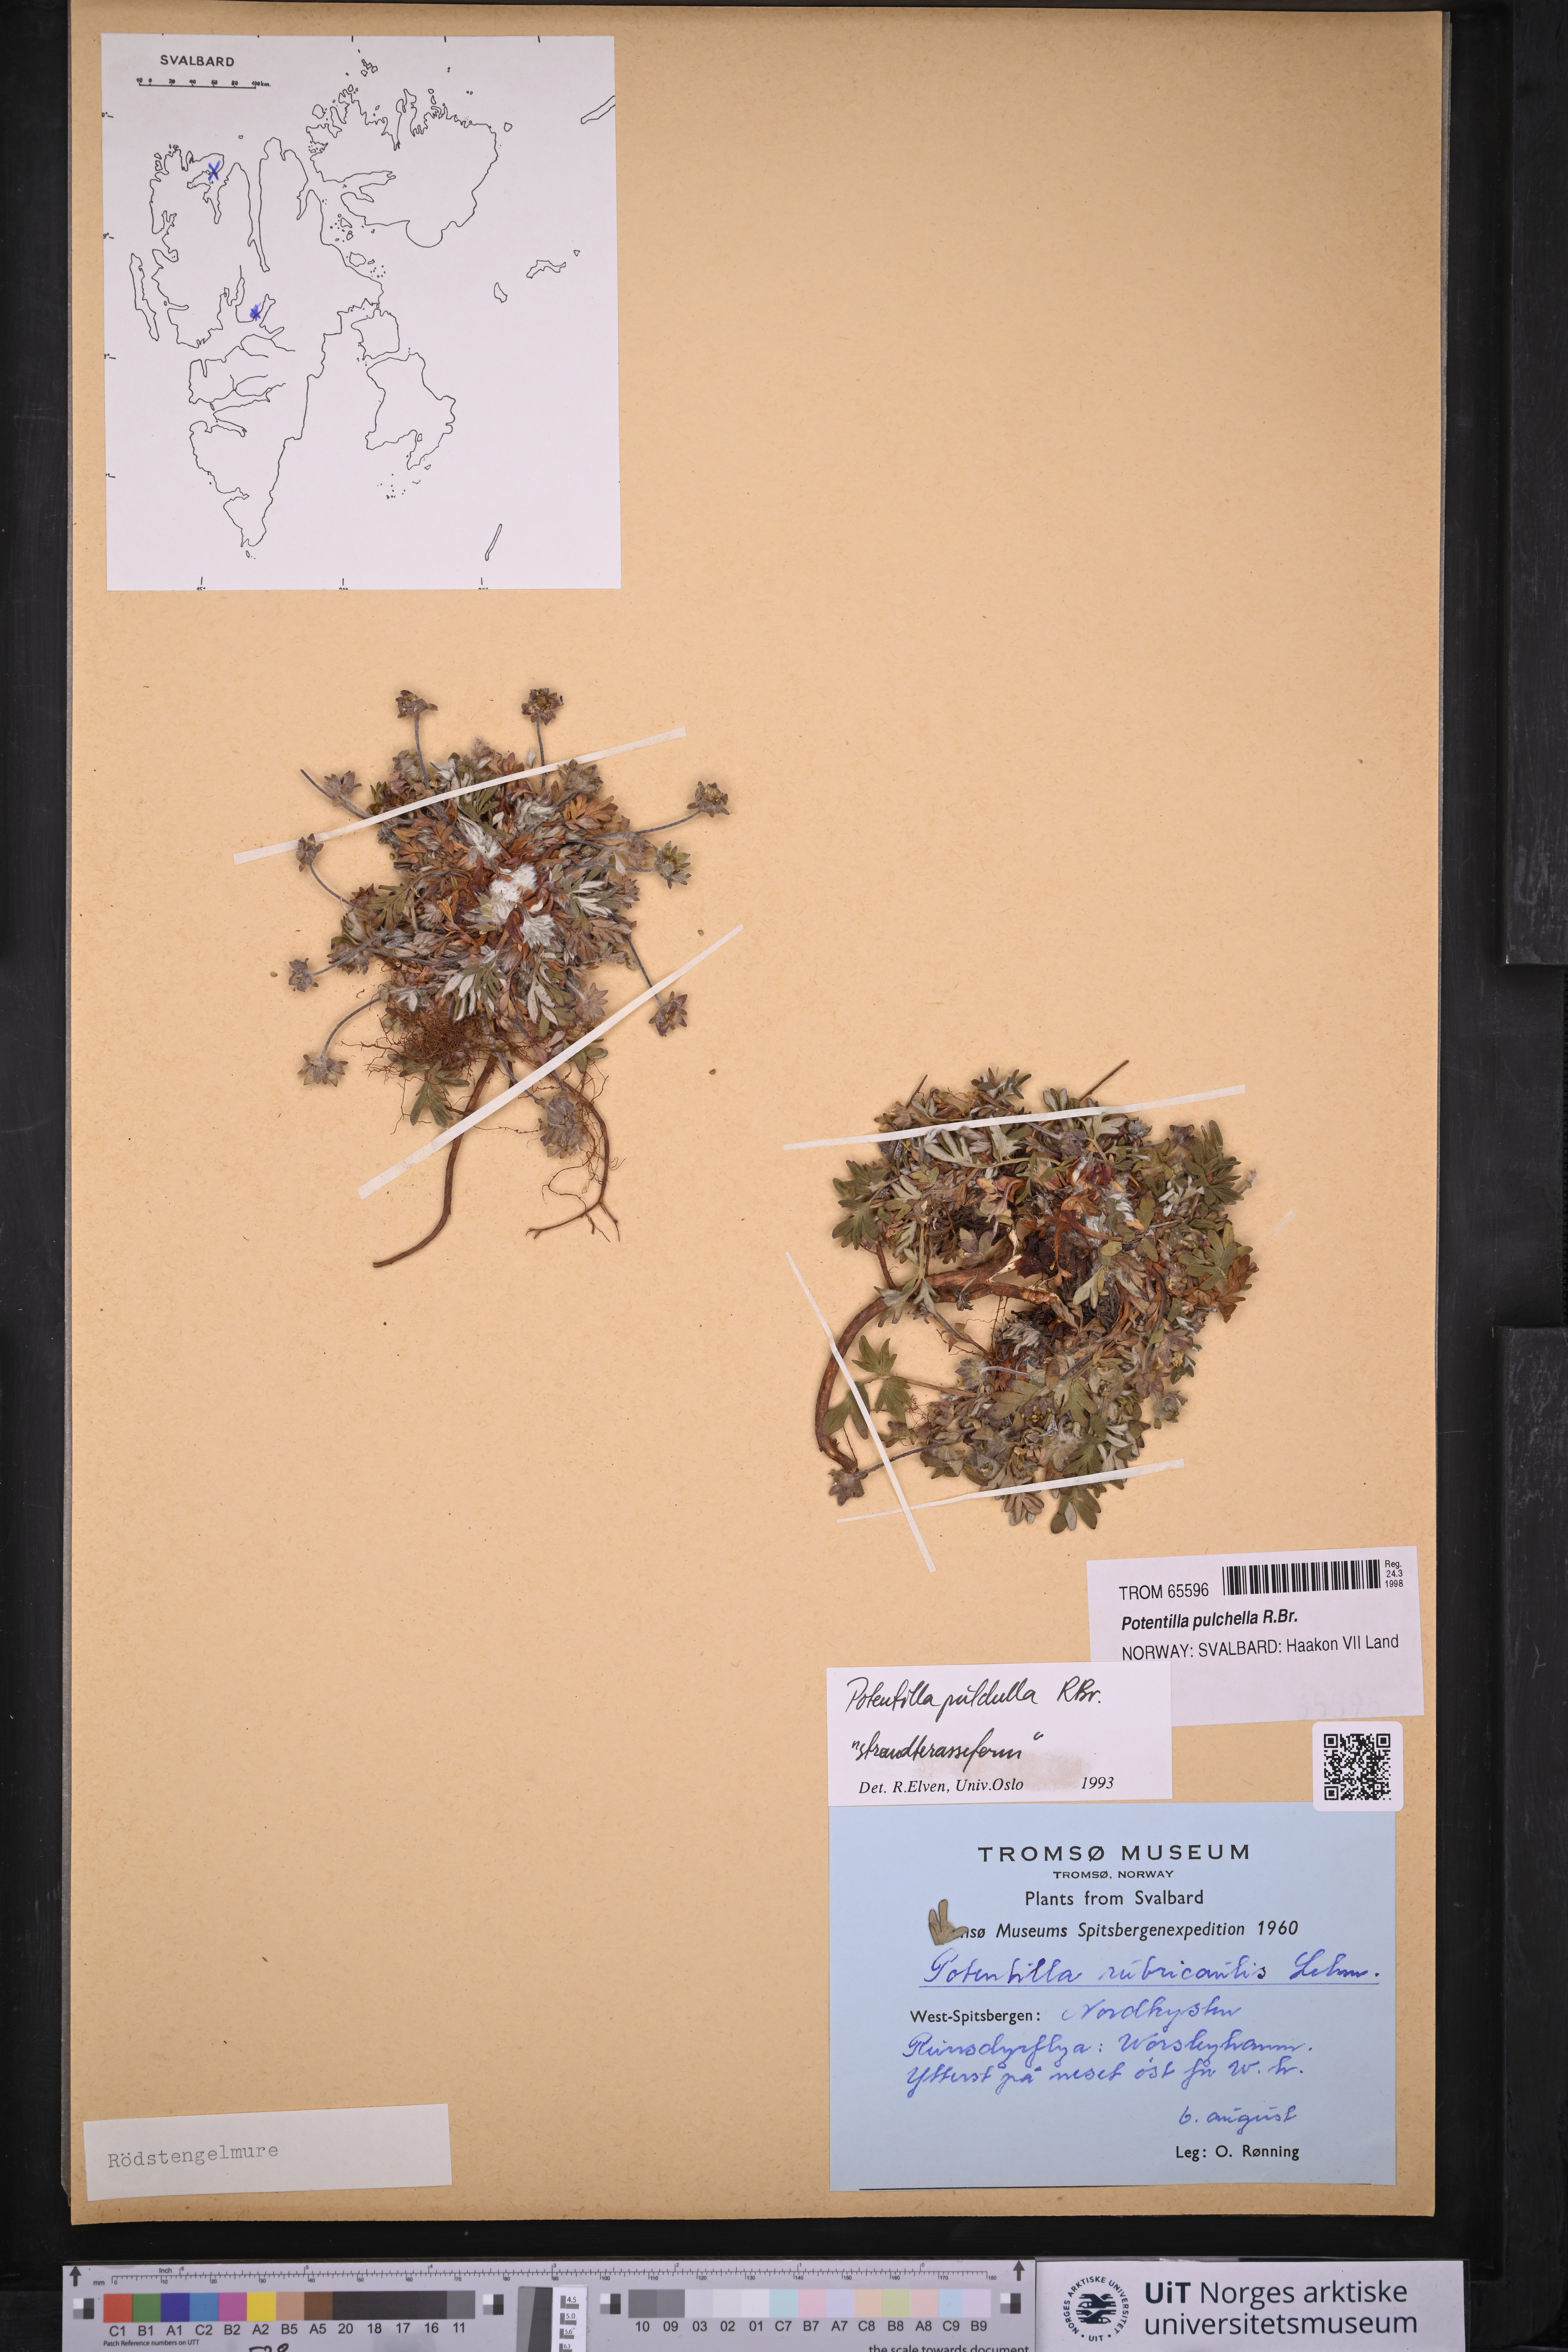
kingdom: Plantae
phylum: Tracheophyta
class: Magnoliopsida
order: Rosales
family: Rosaceae
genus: Potentilla
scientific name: Potentilla pulchella
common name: Pretty cinquefoil
